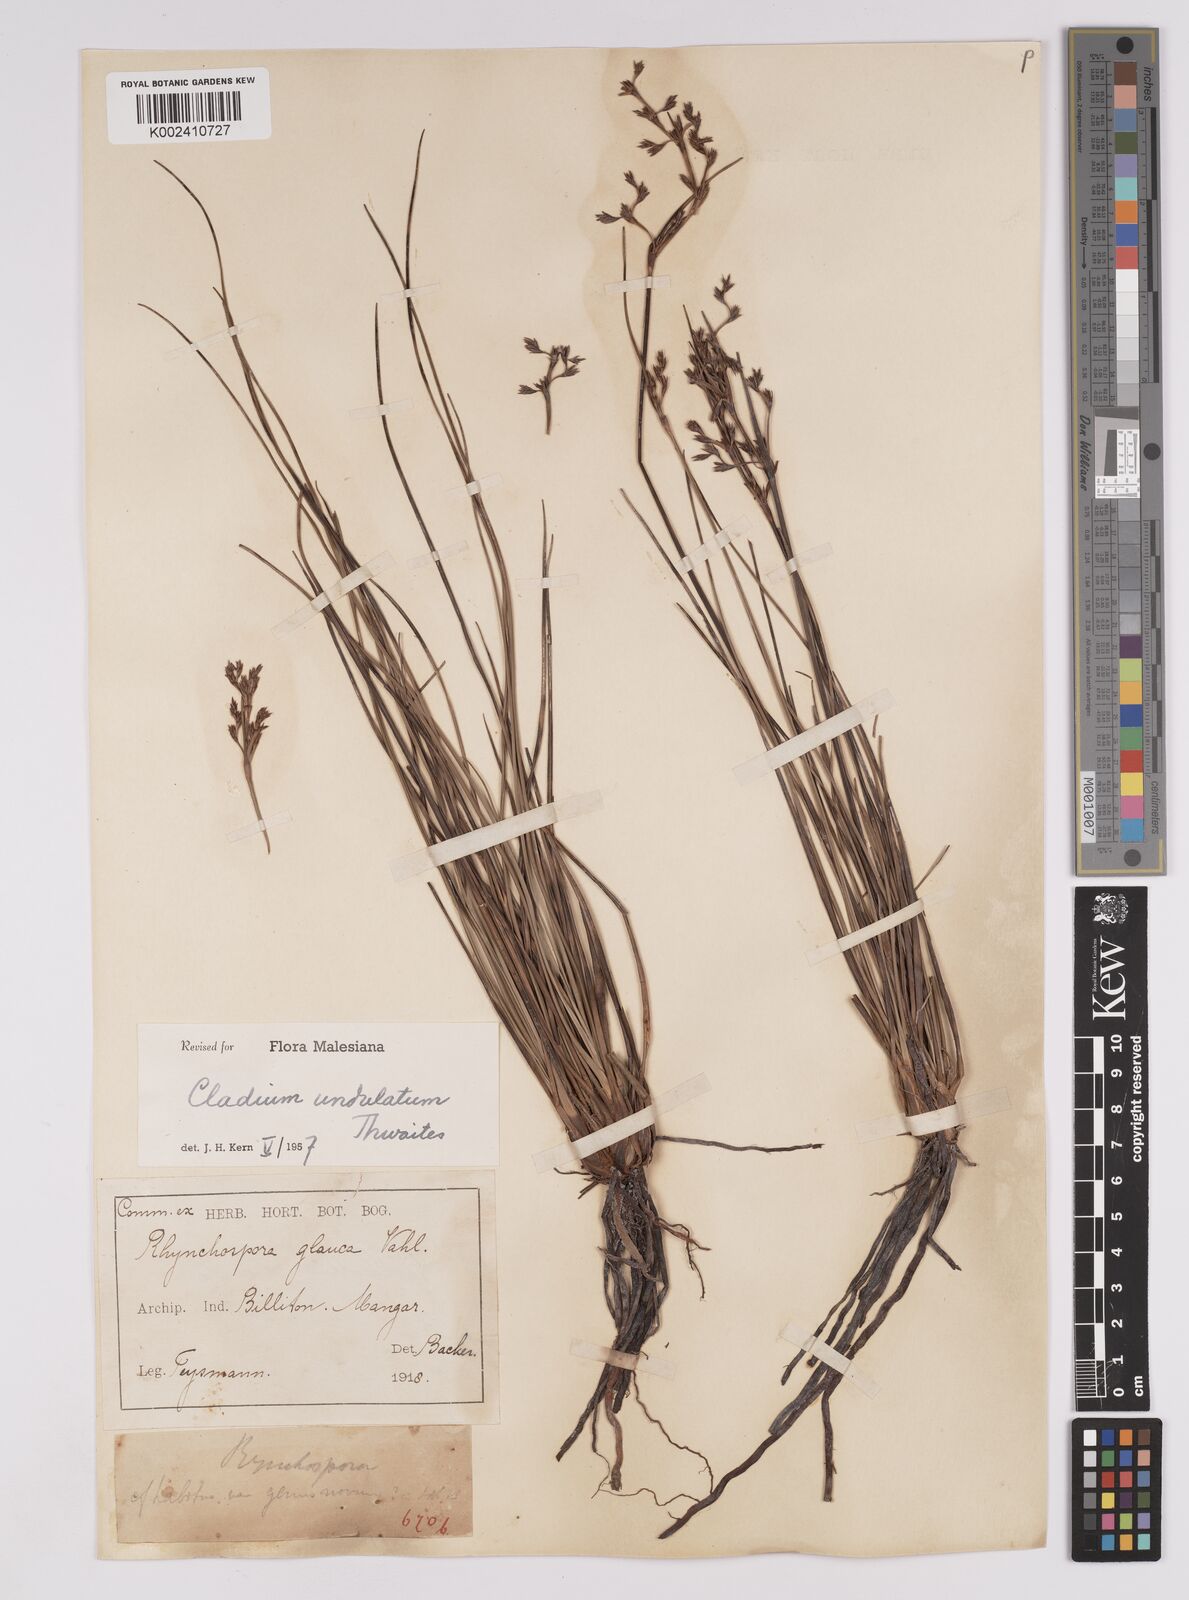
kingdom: Plantae
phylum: Tracheophyta
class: Liliopsida
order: Poales
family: Cyperaceae
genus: Anthelepis
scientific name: Anthelepis undulata
